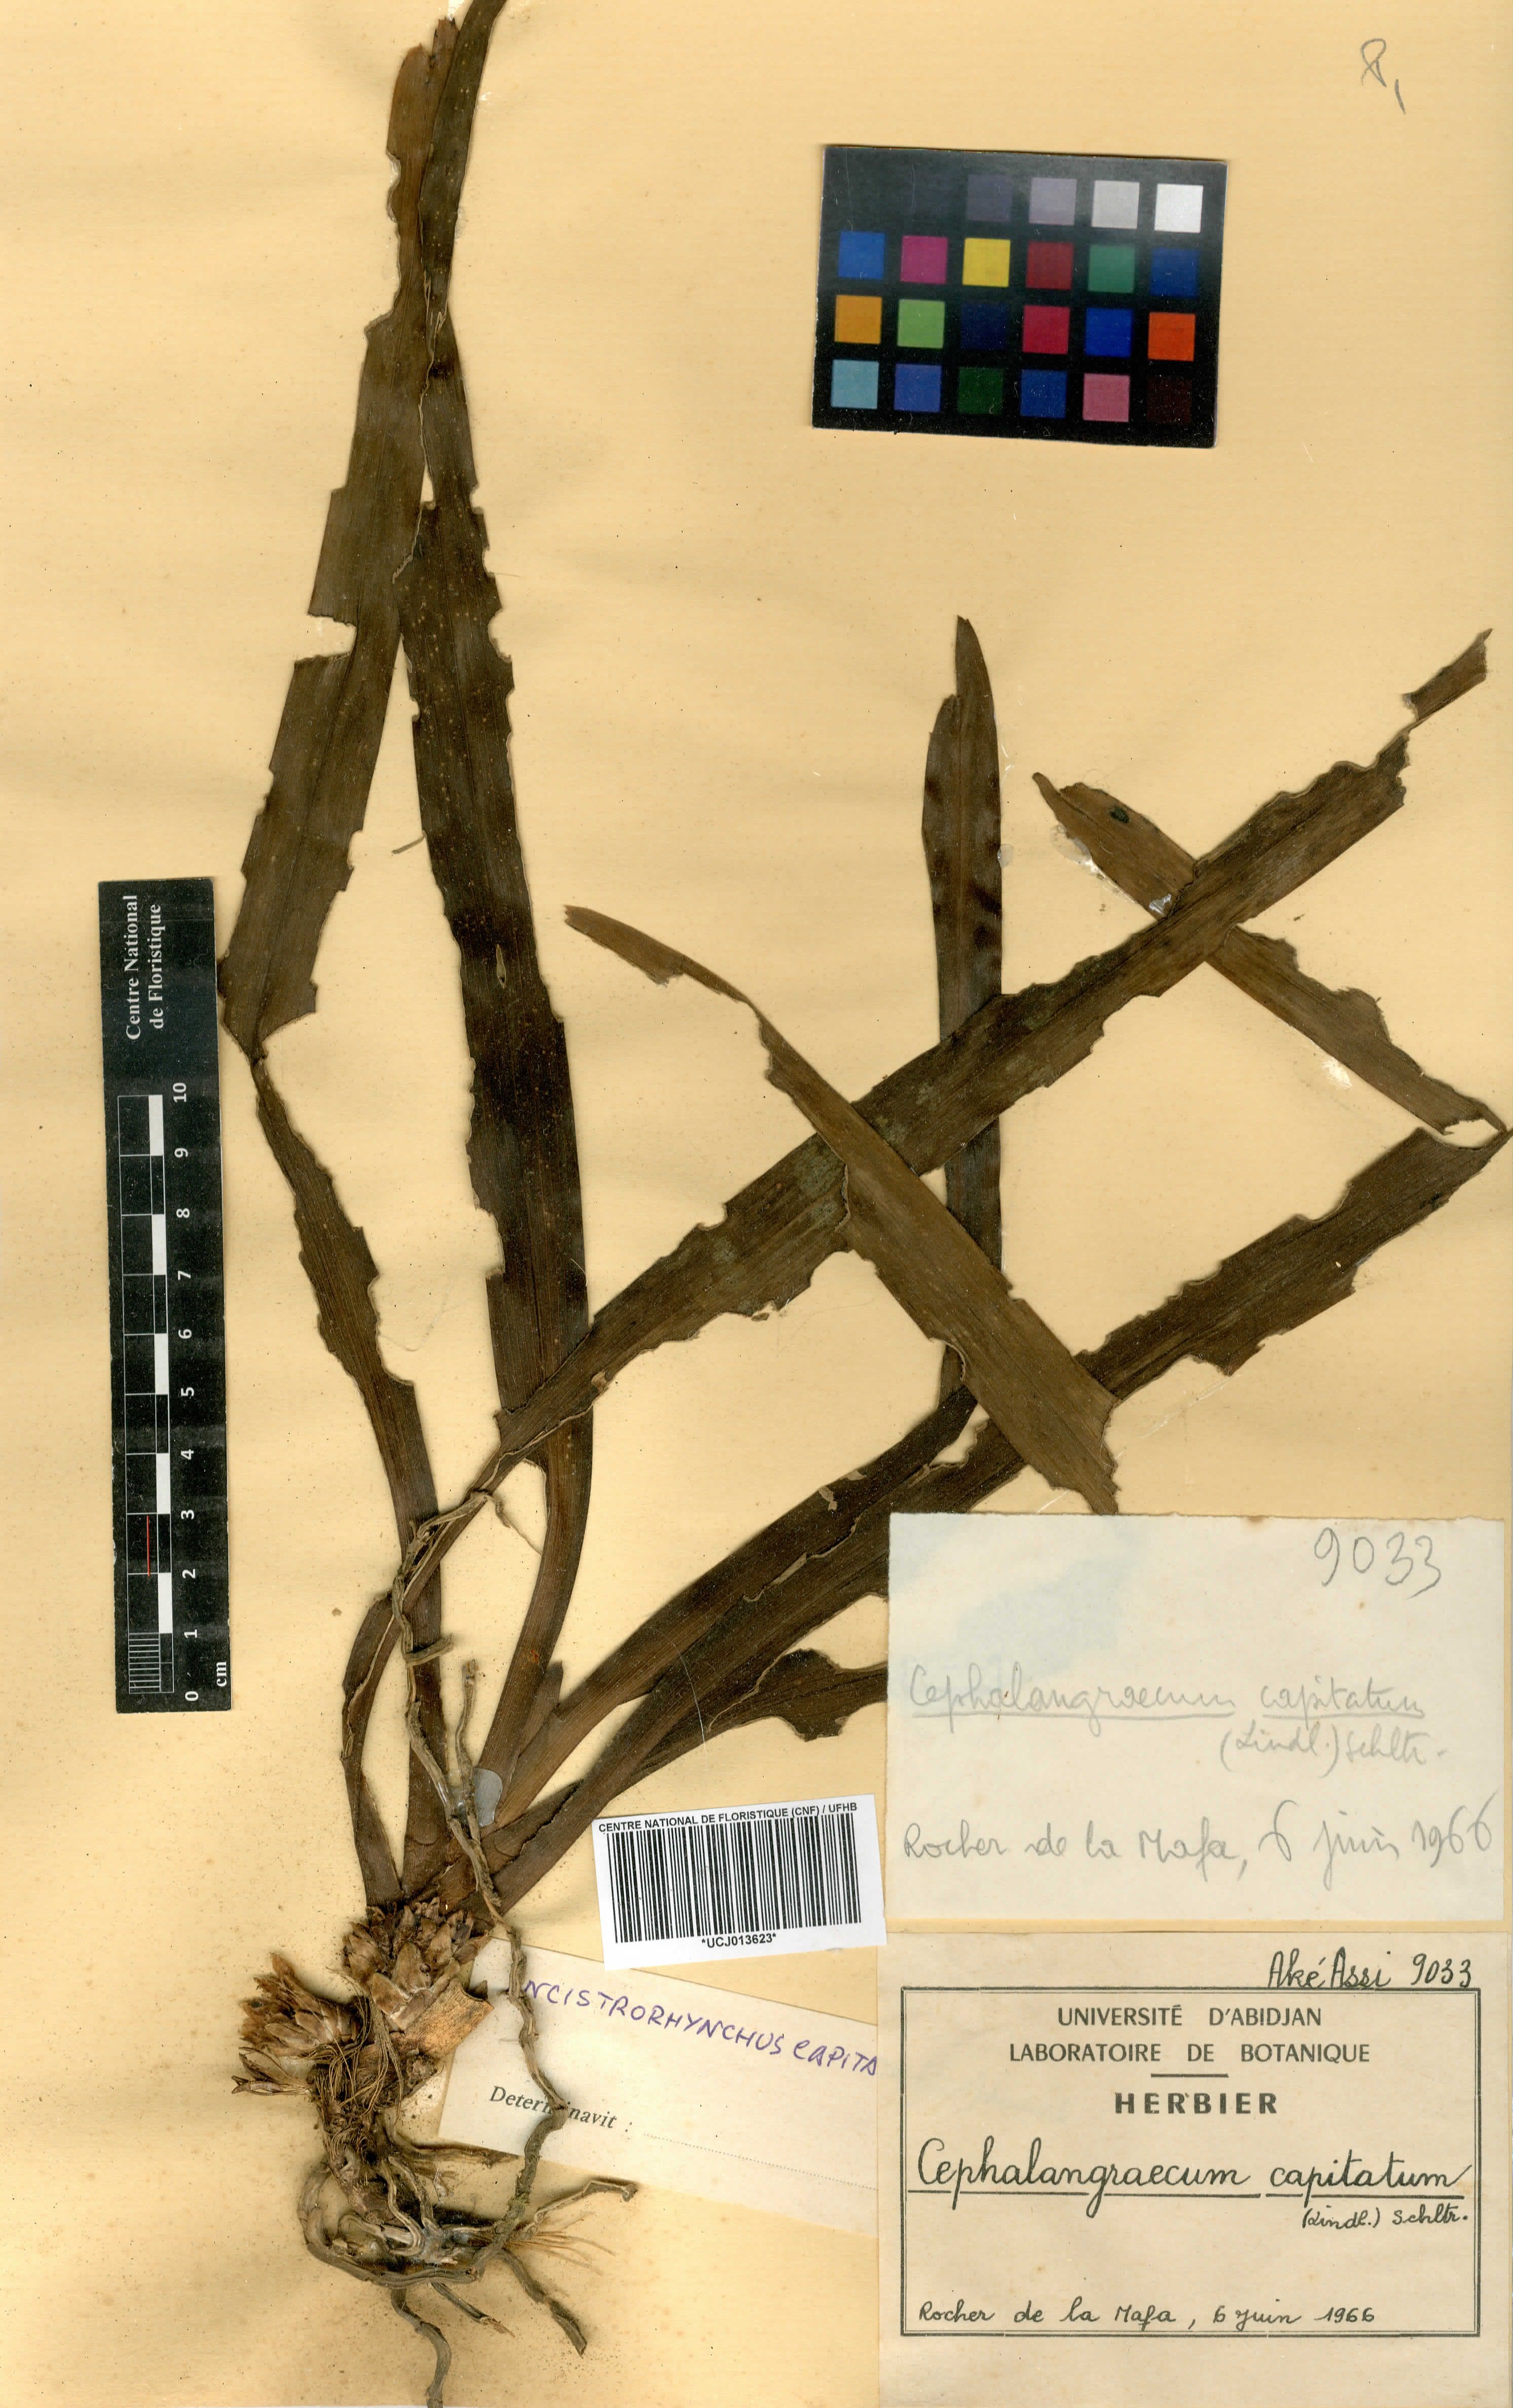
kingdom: Plantae
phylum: Tracheophyta
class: Liliopsida
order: Asparagales
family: Orchidaceae
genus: Ancistrorhynchus
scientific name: Ancistrorhynchus capitatus
